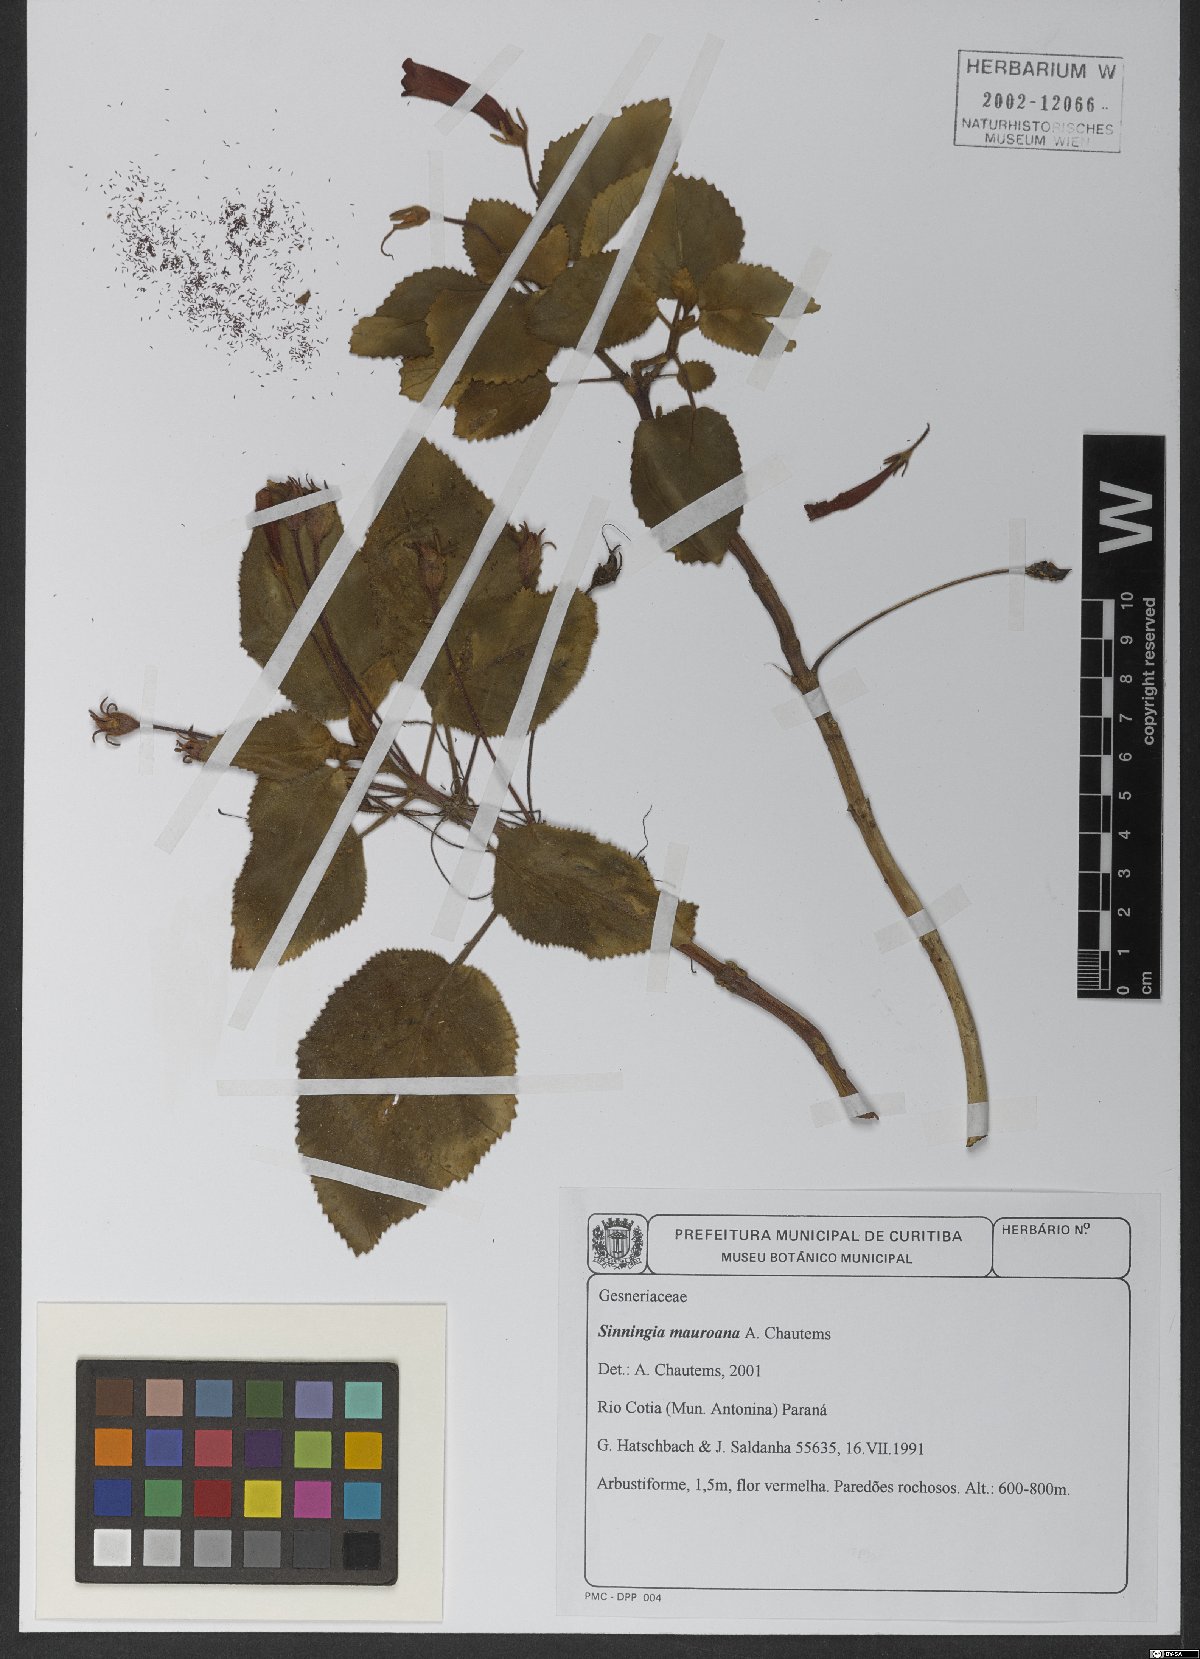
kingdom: Plantae
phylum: Tracheophyta
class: Magnoliopsida
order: Lamiales
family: Gesneriaceae
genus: Sinningia
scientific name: Sinningia mauroana
